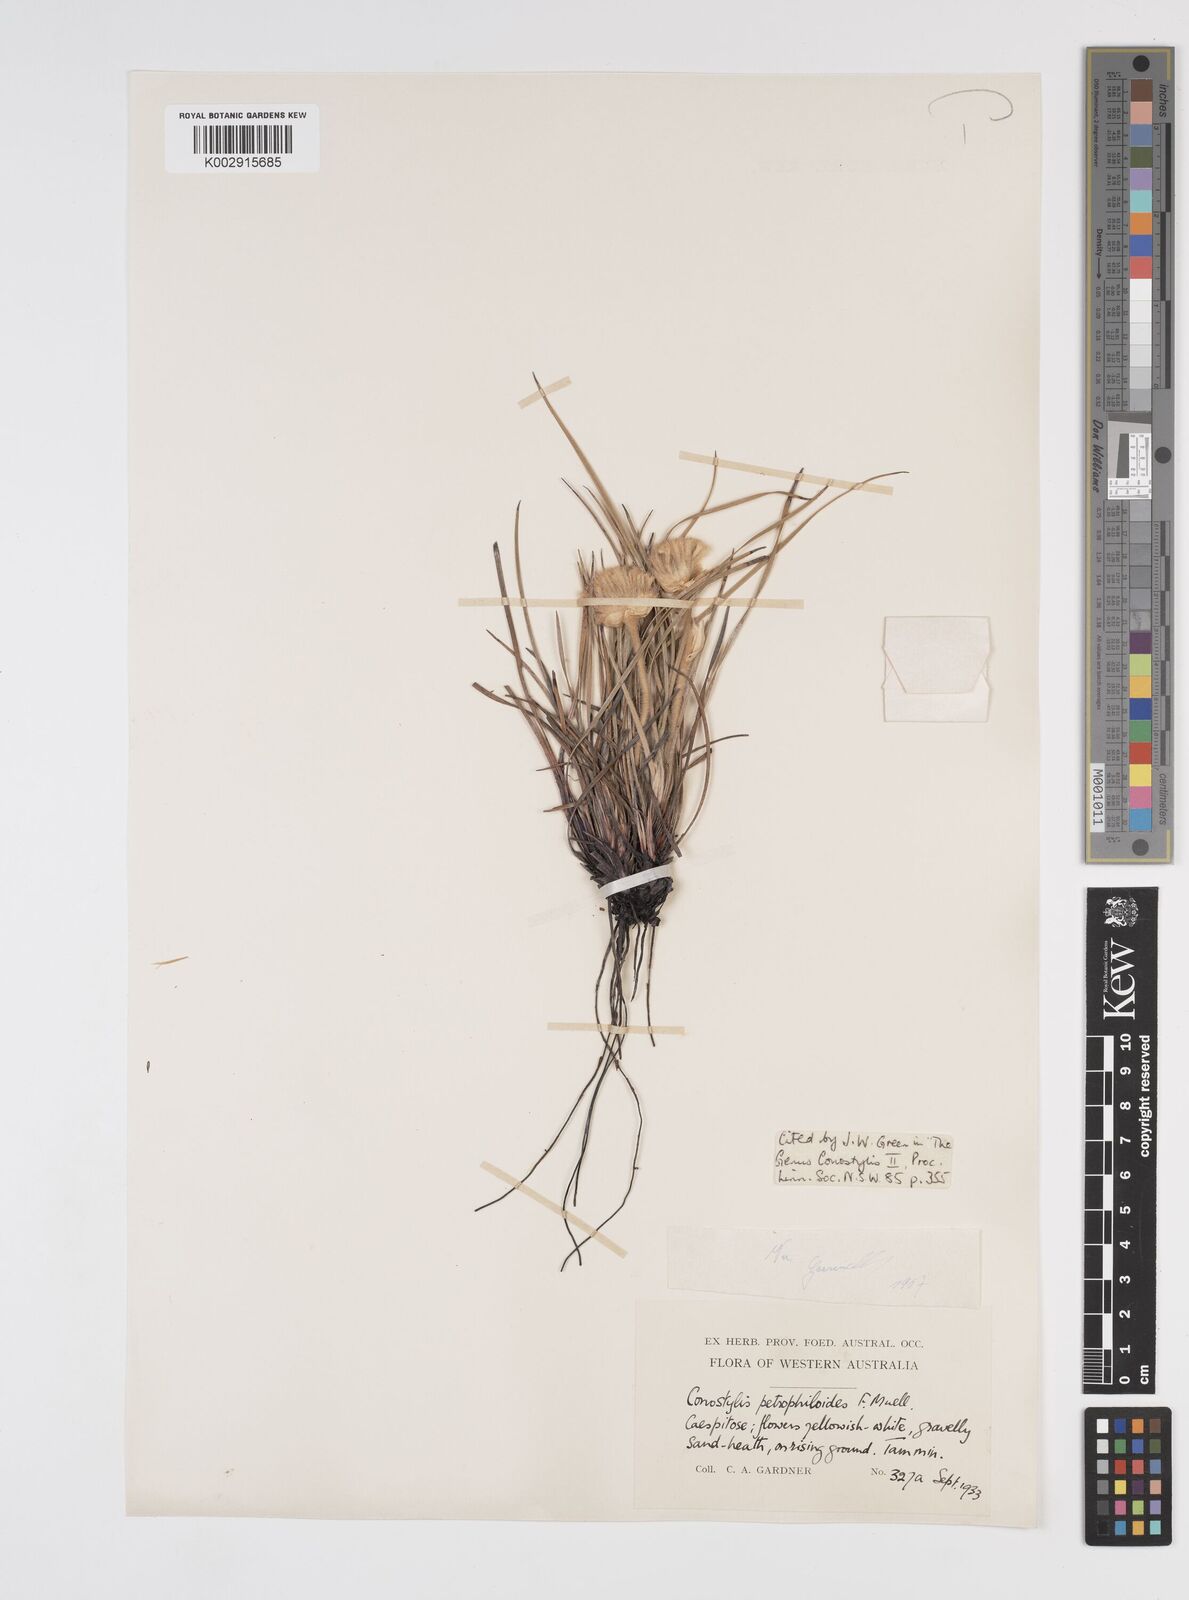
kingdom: Plantae
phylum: Tracheophyta
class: Liliopsida
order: Commelinales
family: Haemodoraceae
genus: Conostylis
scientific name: Conostylis petrophiloides
